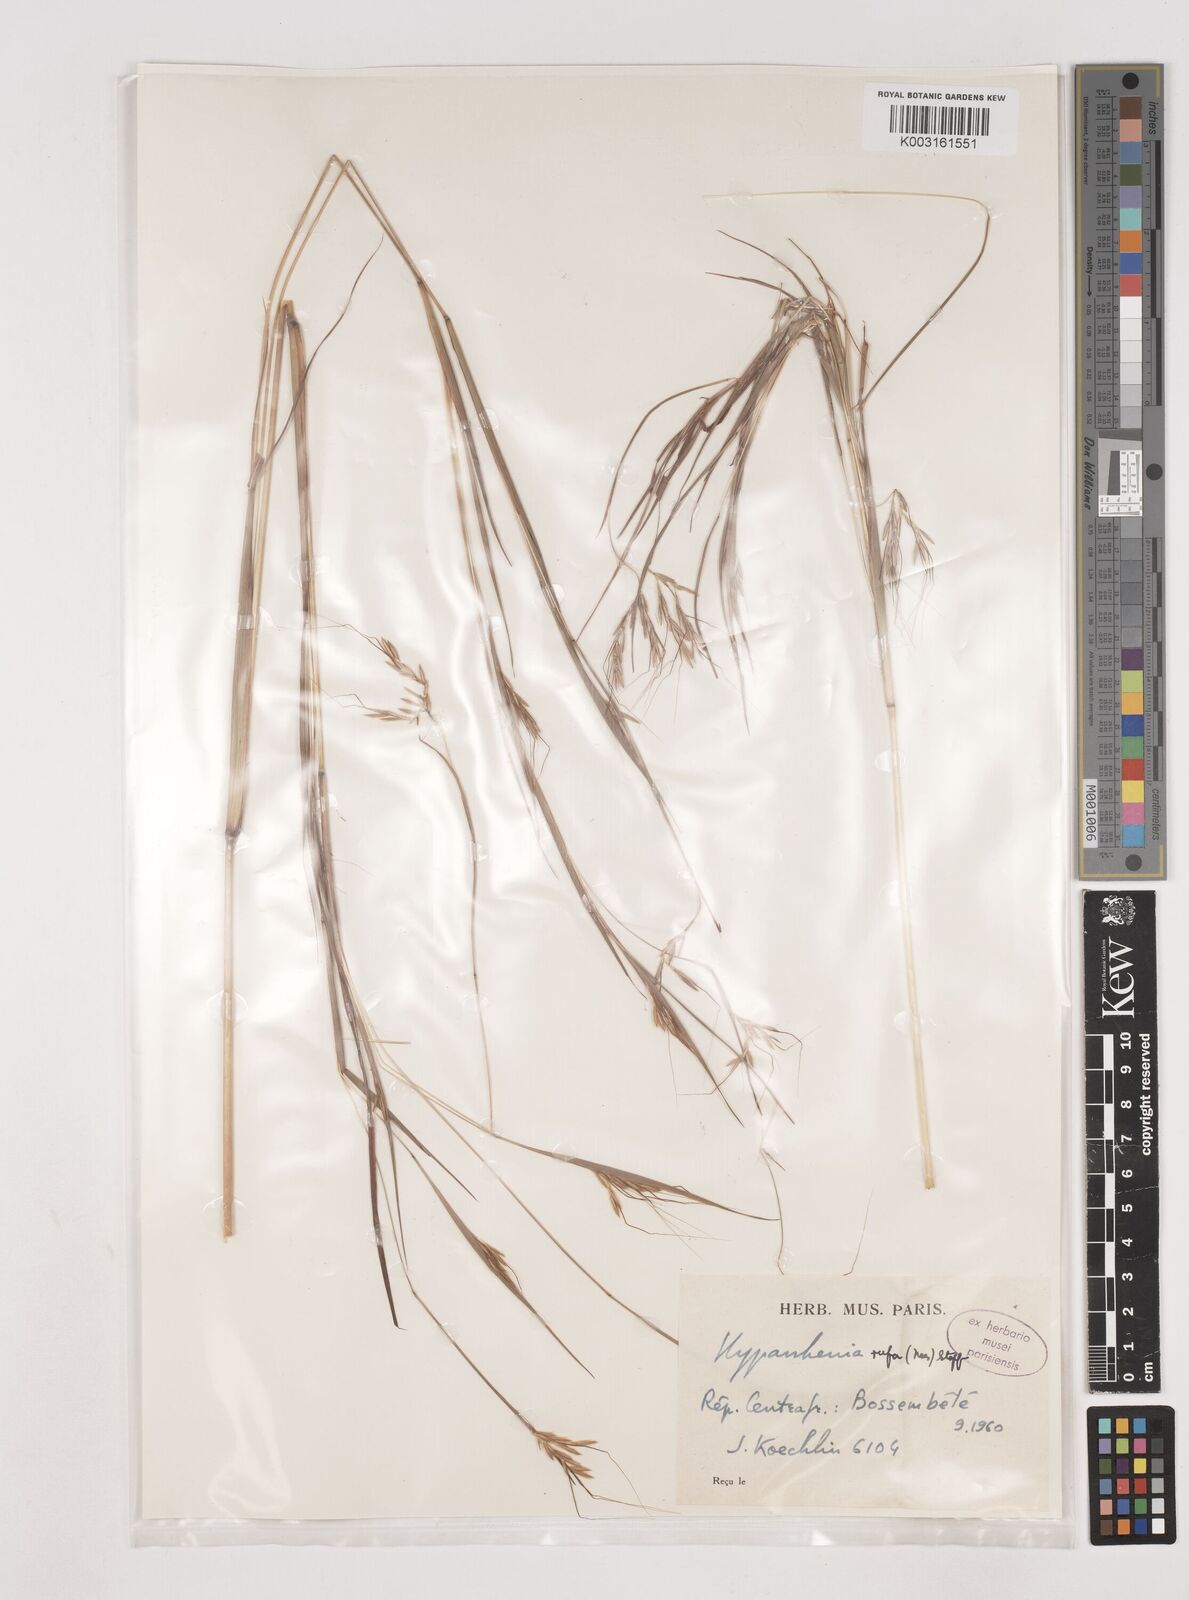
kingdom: Plantae
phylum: Tracheophyta
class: Liliopsida
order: Poales
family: Poaceae
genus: Hyparrhenia
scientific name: Hyparrhenia rufa
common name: Jaraguagrass
